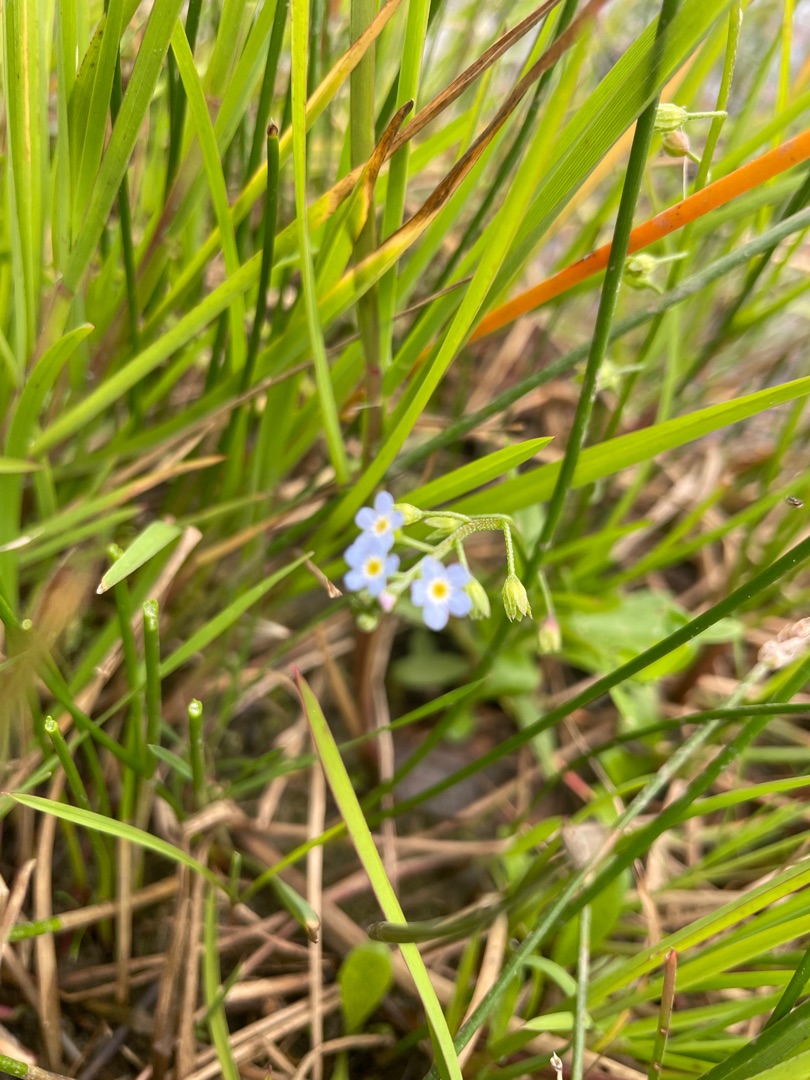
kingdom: Plantae
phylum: Tracheophyta
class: Magnoliopsida
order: Boraginales
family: Boraginaceae
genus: Myosotis
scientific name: Myosotis laxa
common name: Sump-forglemmigej
